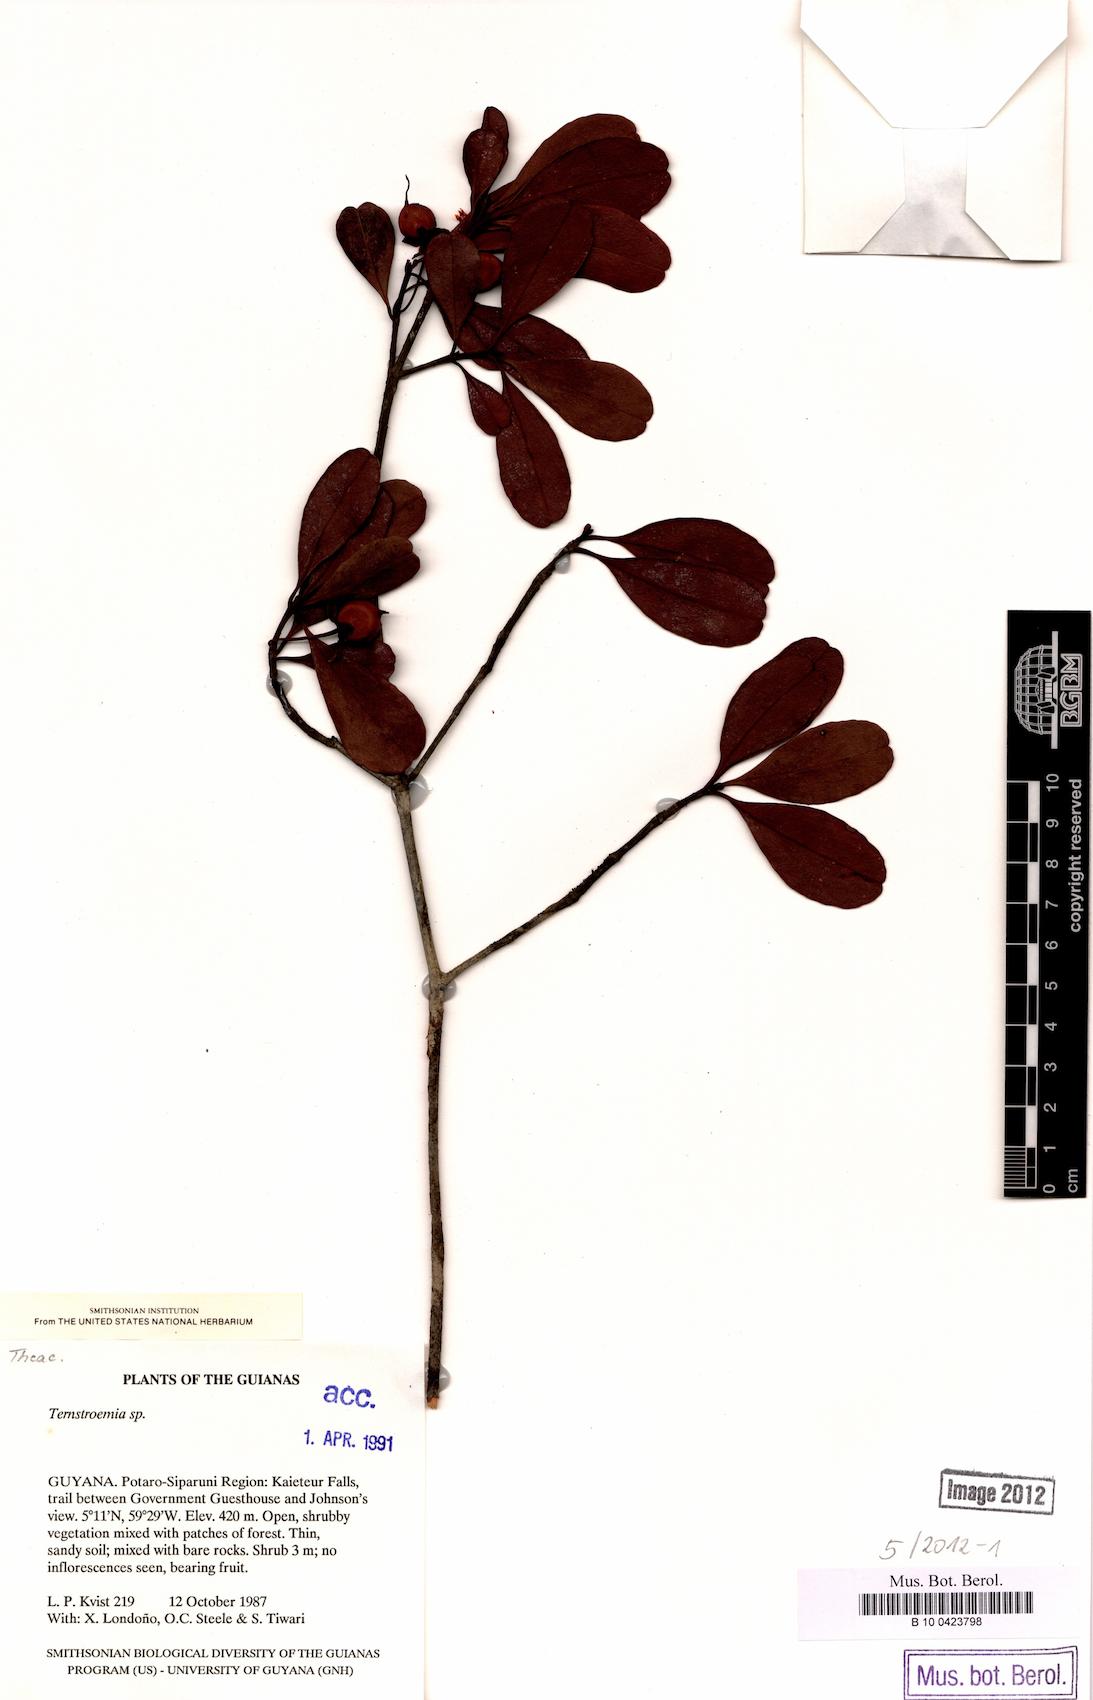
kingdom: Plantae
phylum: Tracheophyta
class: Magnoliopsida
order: Ericales
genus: Ternstroemia
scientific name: Ternstroemia
